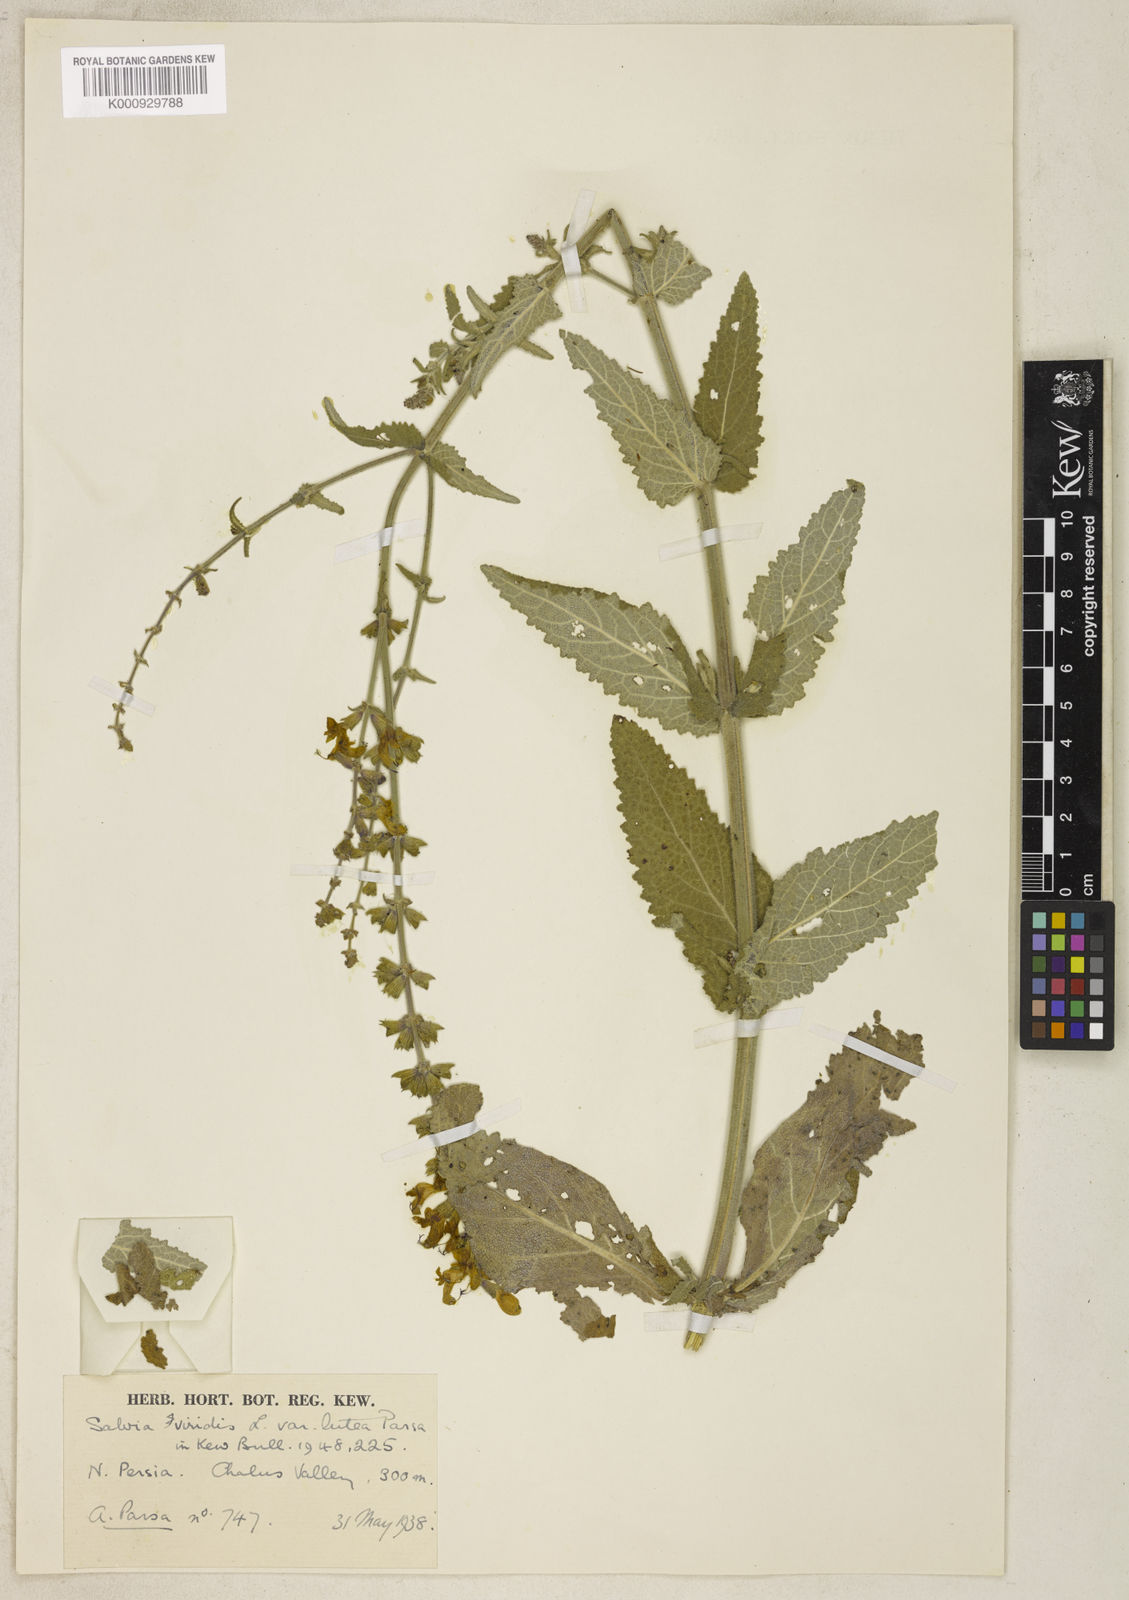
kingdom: Plantae
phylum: Tracheophyta
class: Magnoliopsida
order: Lamiales
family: Lamiaceae
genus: Salvia
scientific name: Salvia viridis
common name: Annual clary
